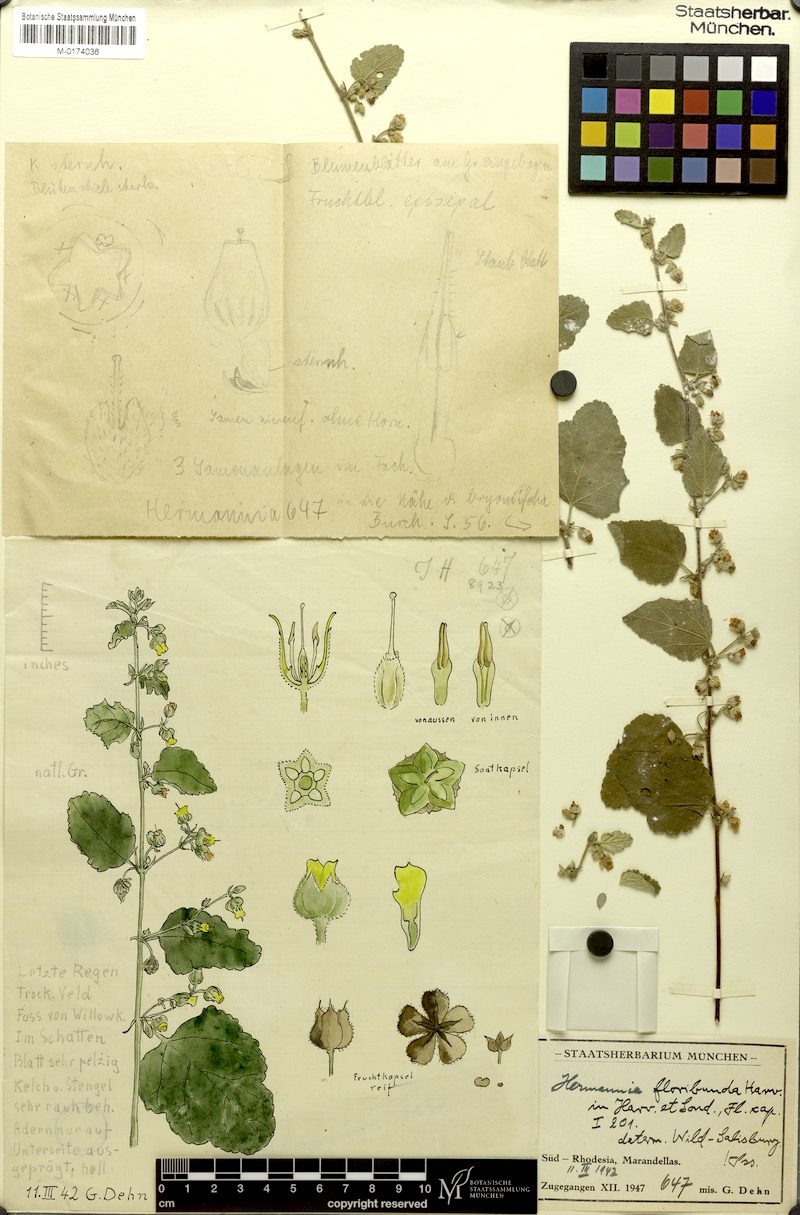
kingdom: Plantae
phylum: Tracheophyta
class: Magnoliopsida
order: Malvales
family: Malvaceae
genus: Hermannia
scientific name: Hermannia floribunda
